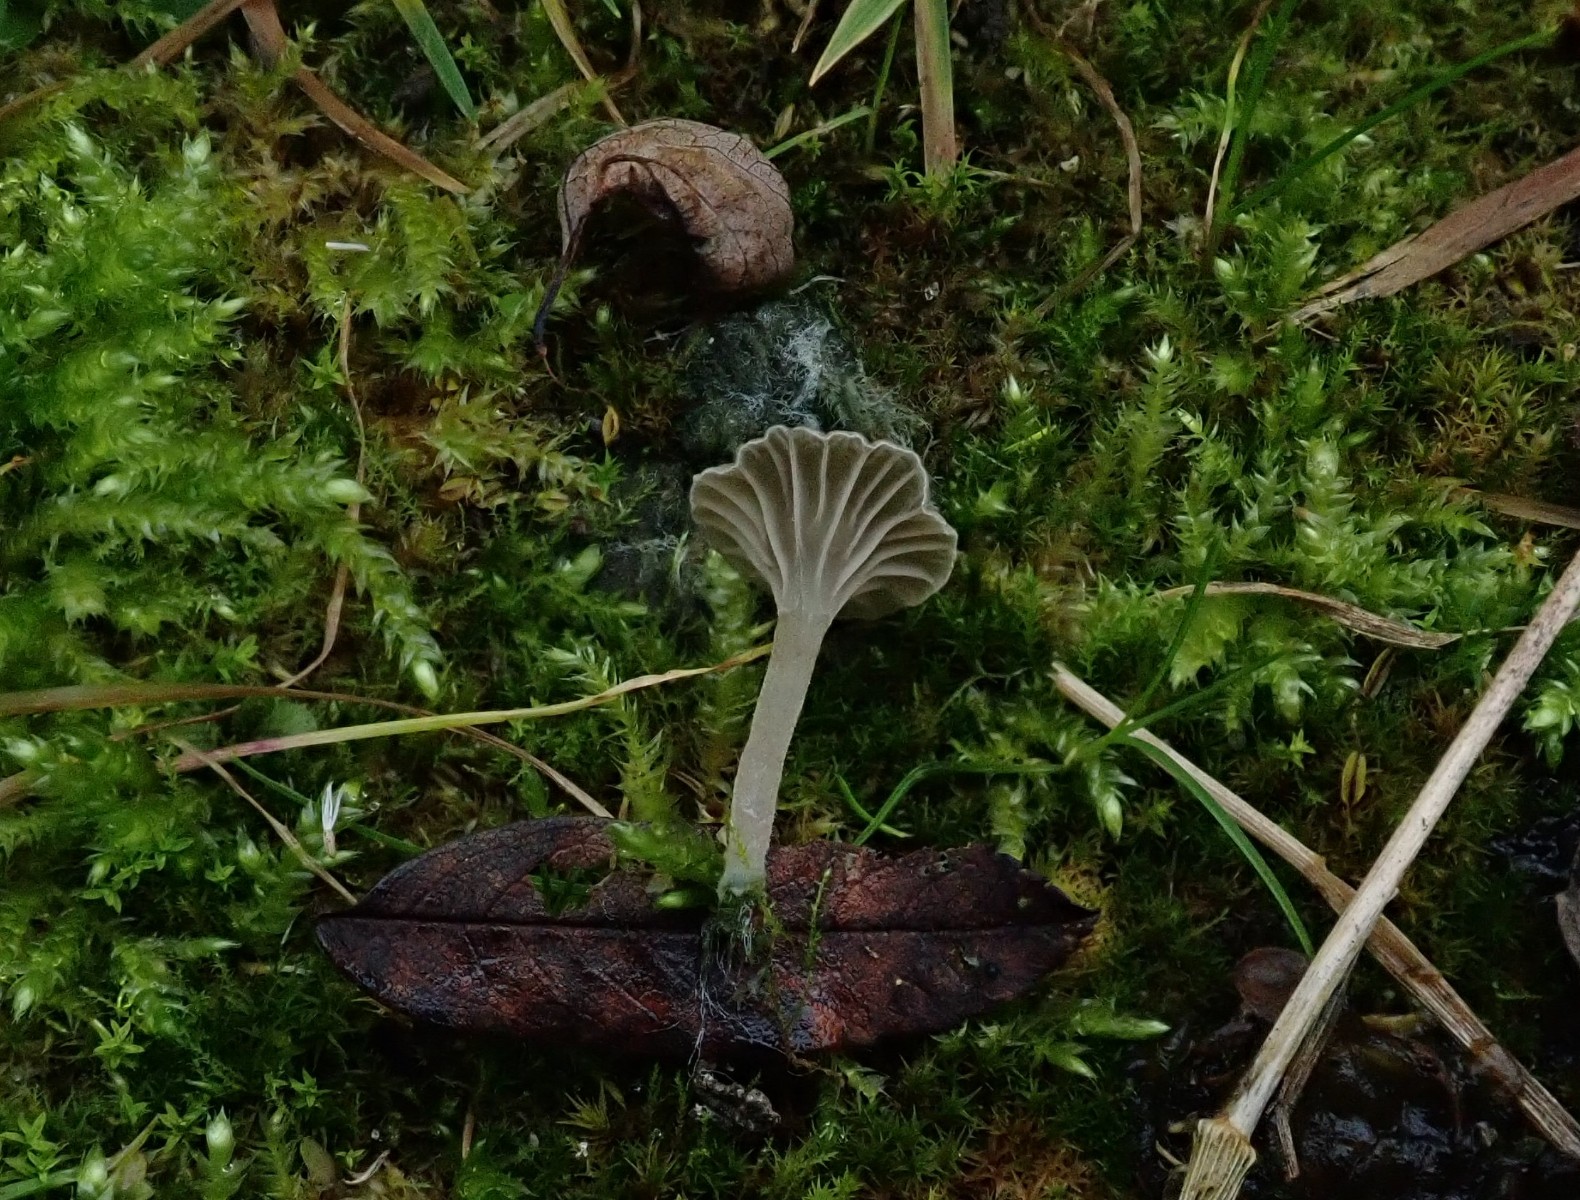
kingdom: Fungi
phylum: Basidiomycota
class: Agaricomycetes
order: Agaricales
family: Hygrophoraceae
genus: Arrhenia
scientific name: Arrhenia
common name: fontænehat
